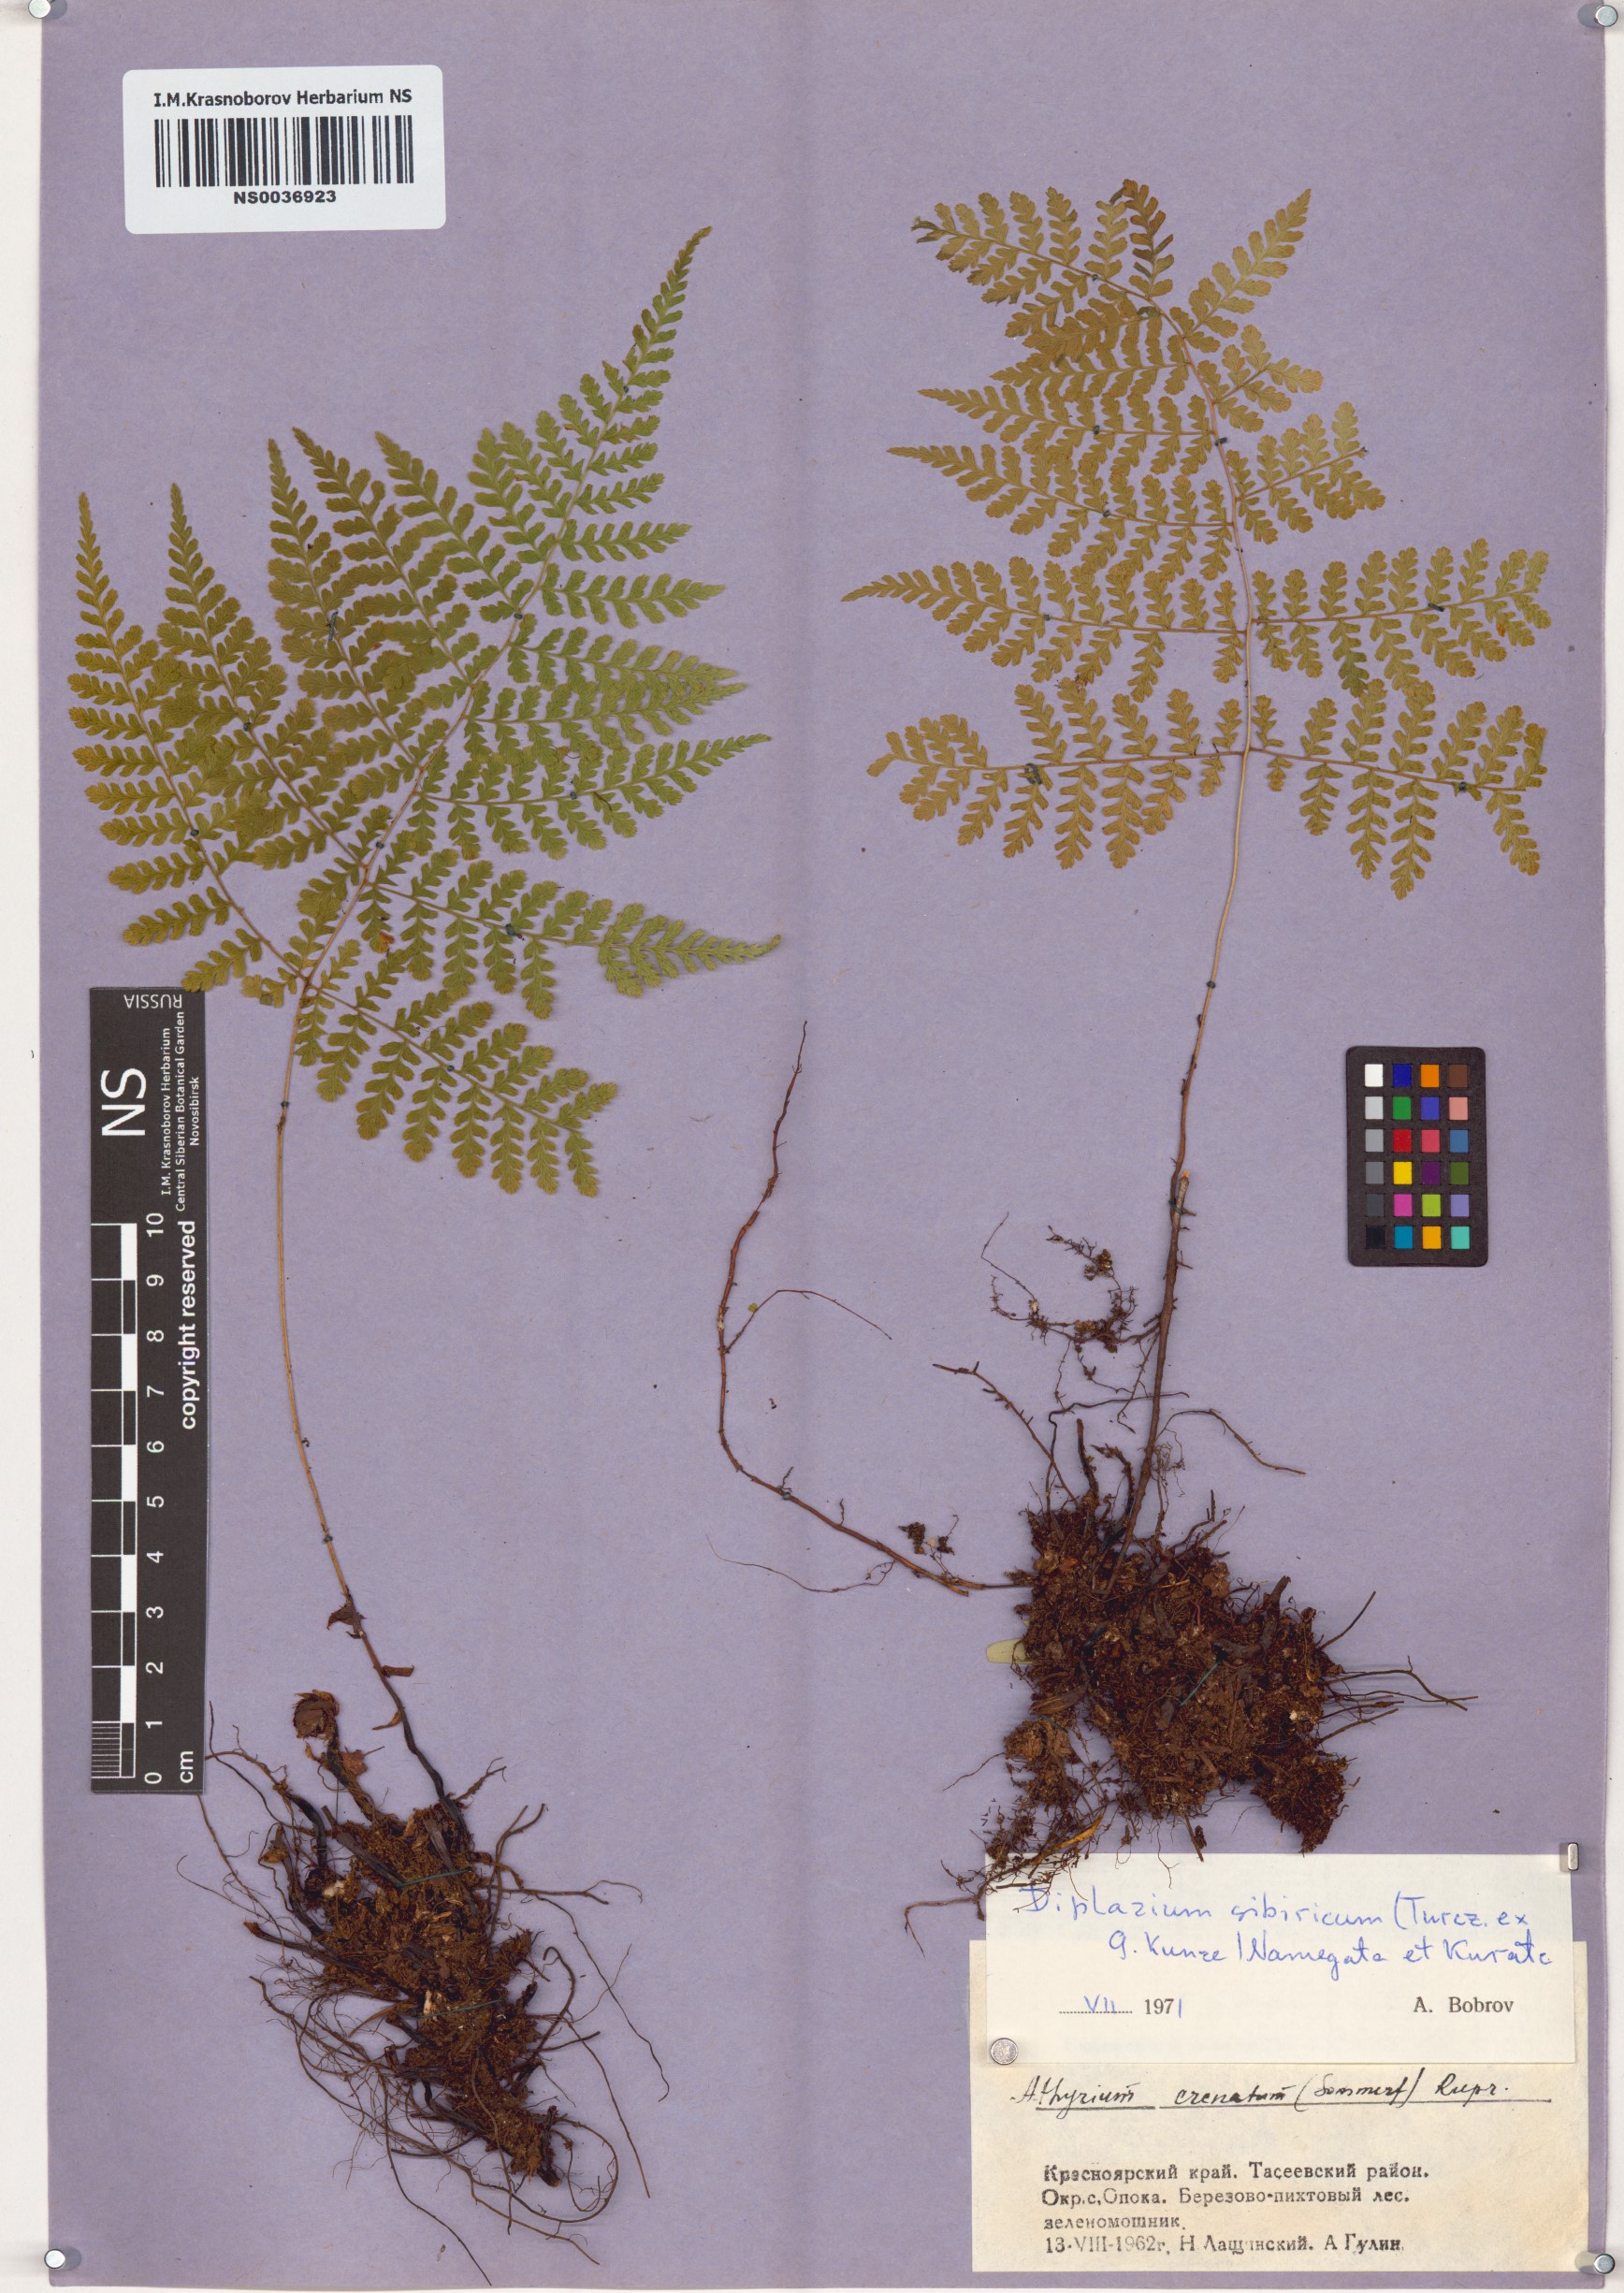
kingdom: Plantae
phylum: Tracheophyta
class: Polypodiopsida
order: Polypodiales
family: Athyriaceae
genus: Diplazium
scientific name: Diplazium sibiricum
